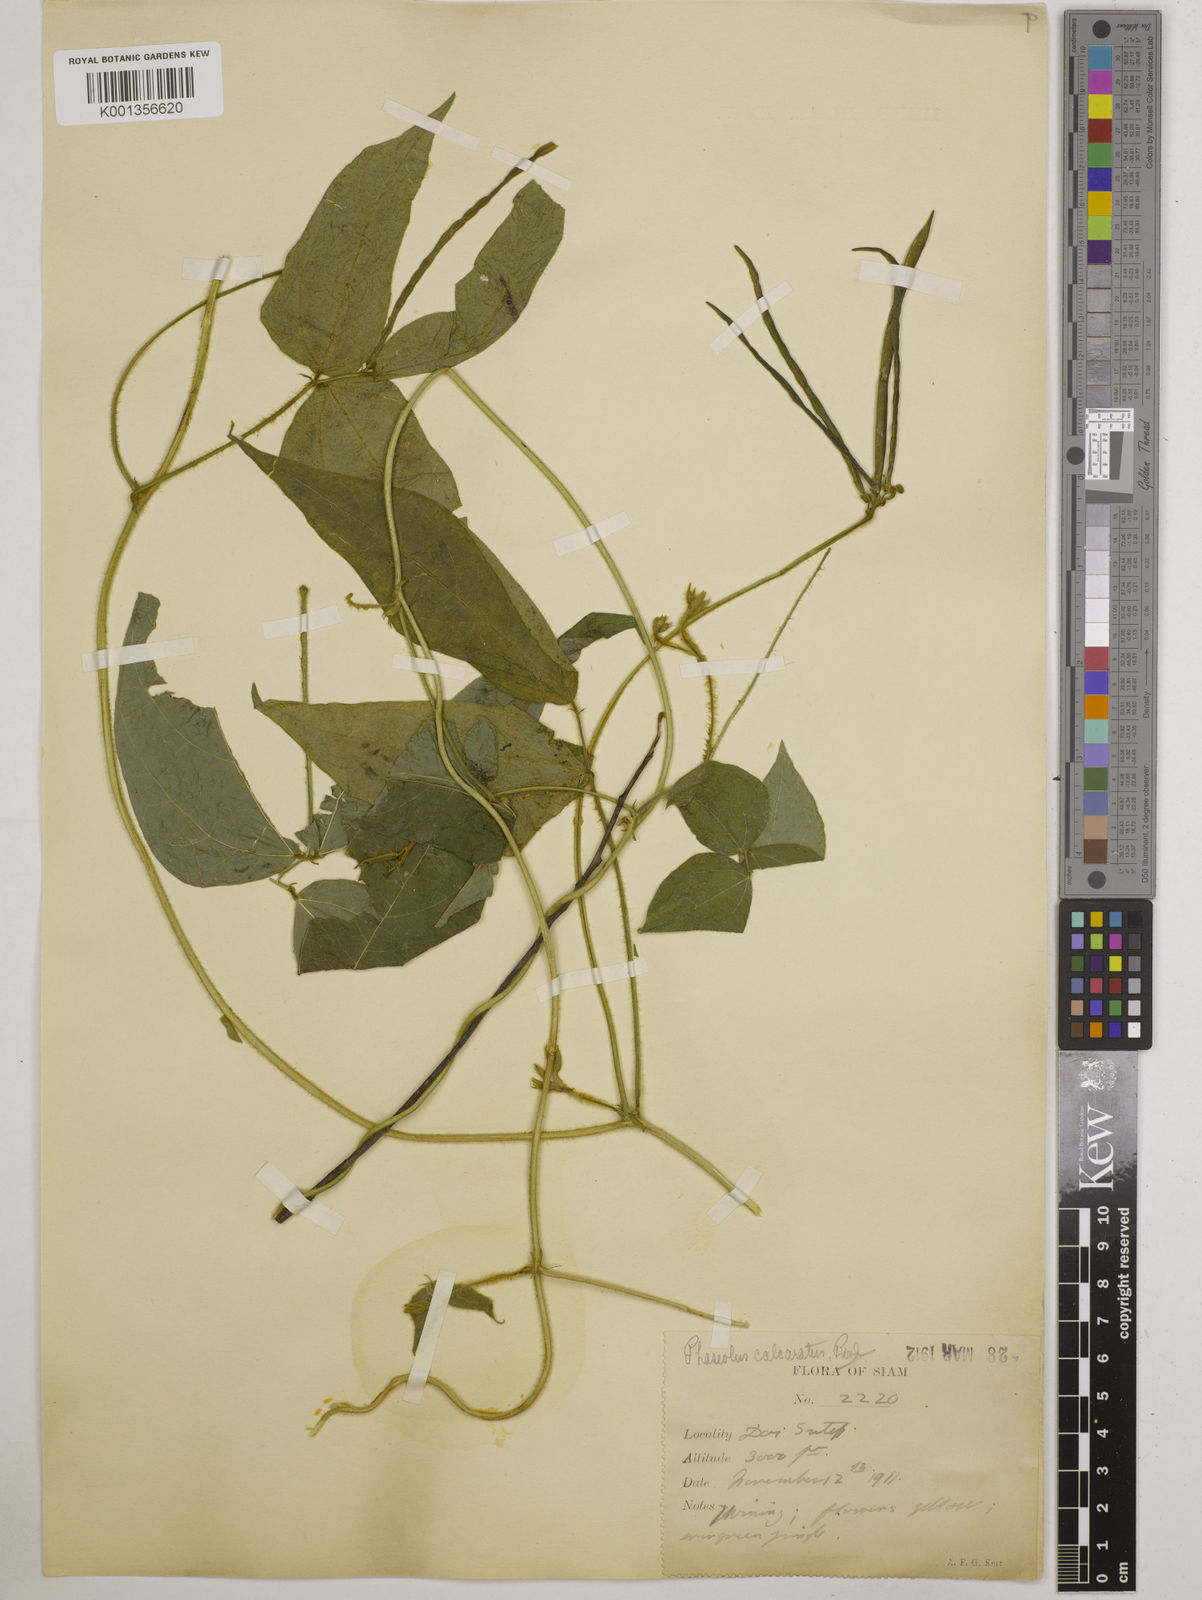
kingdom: Plantae
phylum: Tracheophyta
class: Magnoliopsida
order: Fabales
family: Fabaceae
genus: Vigna
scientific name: Vigna gracilicaulis
